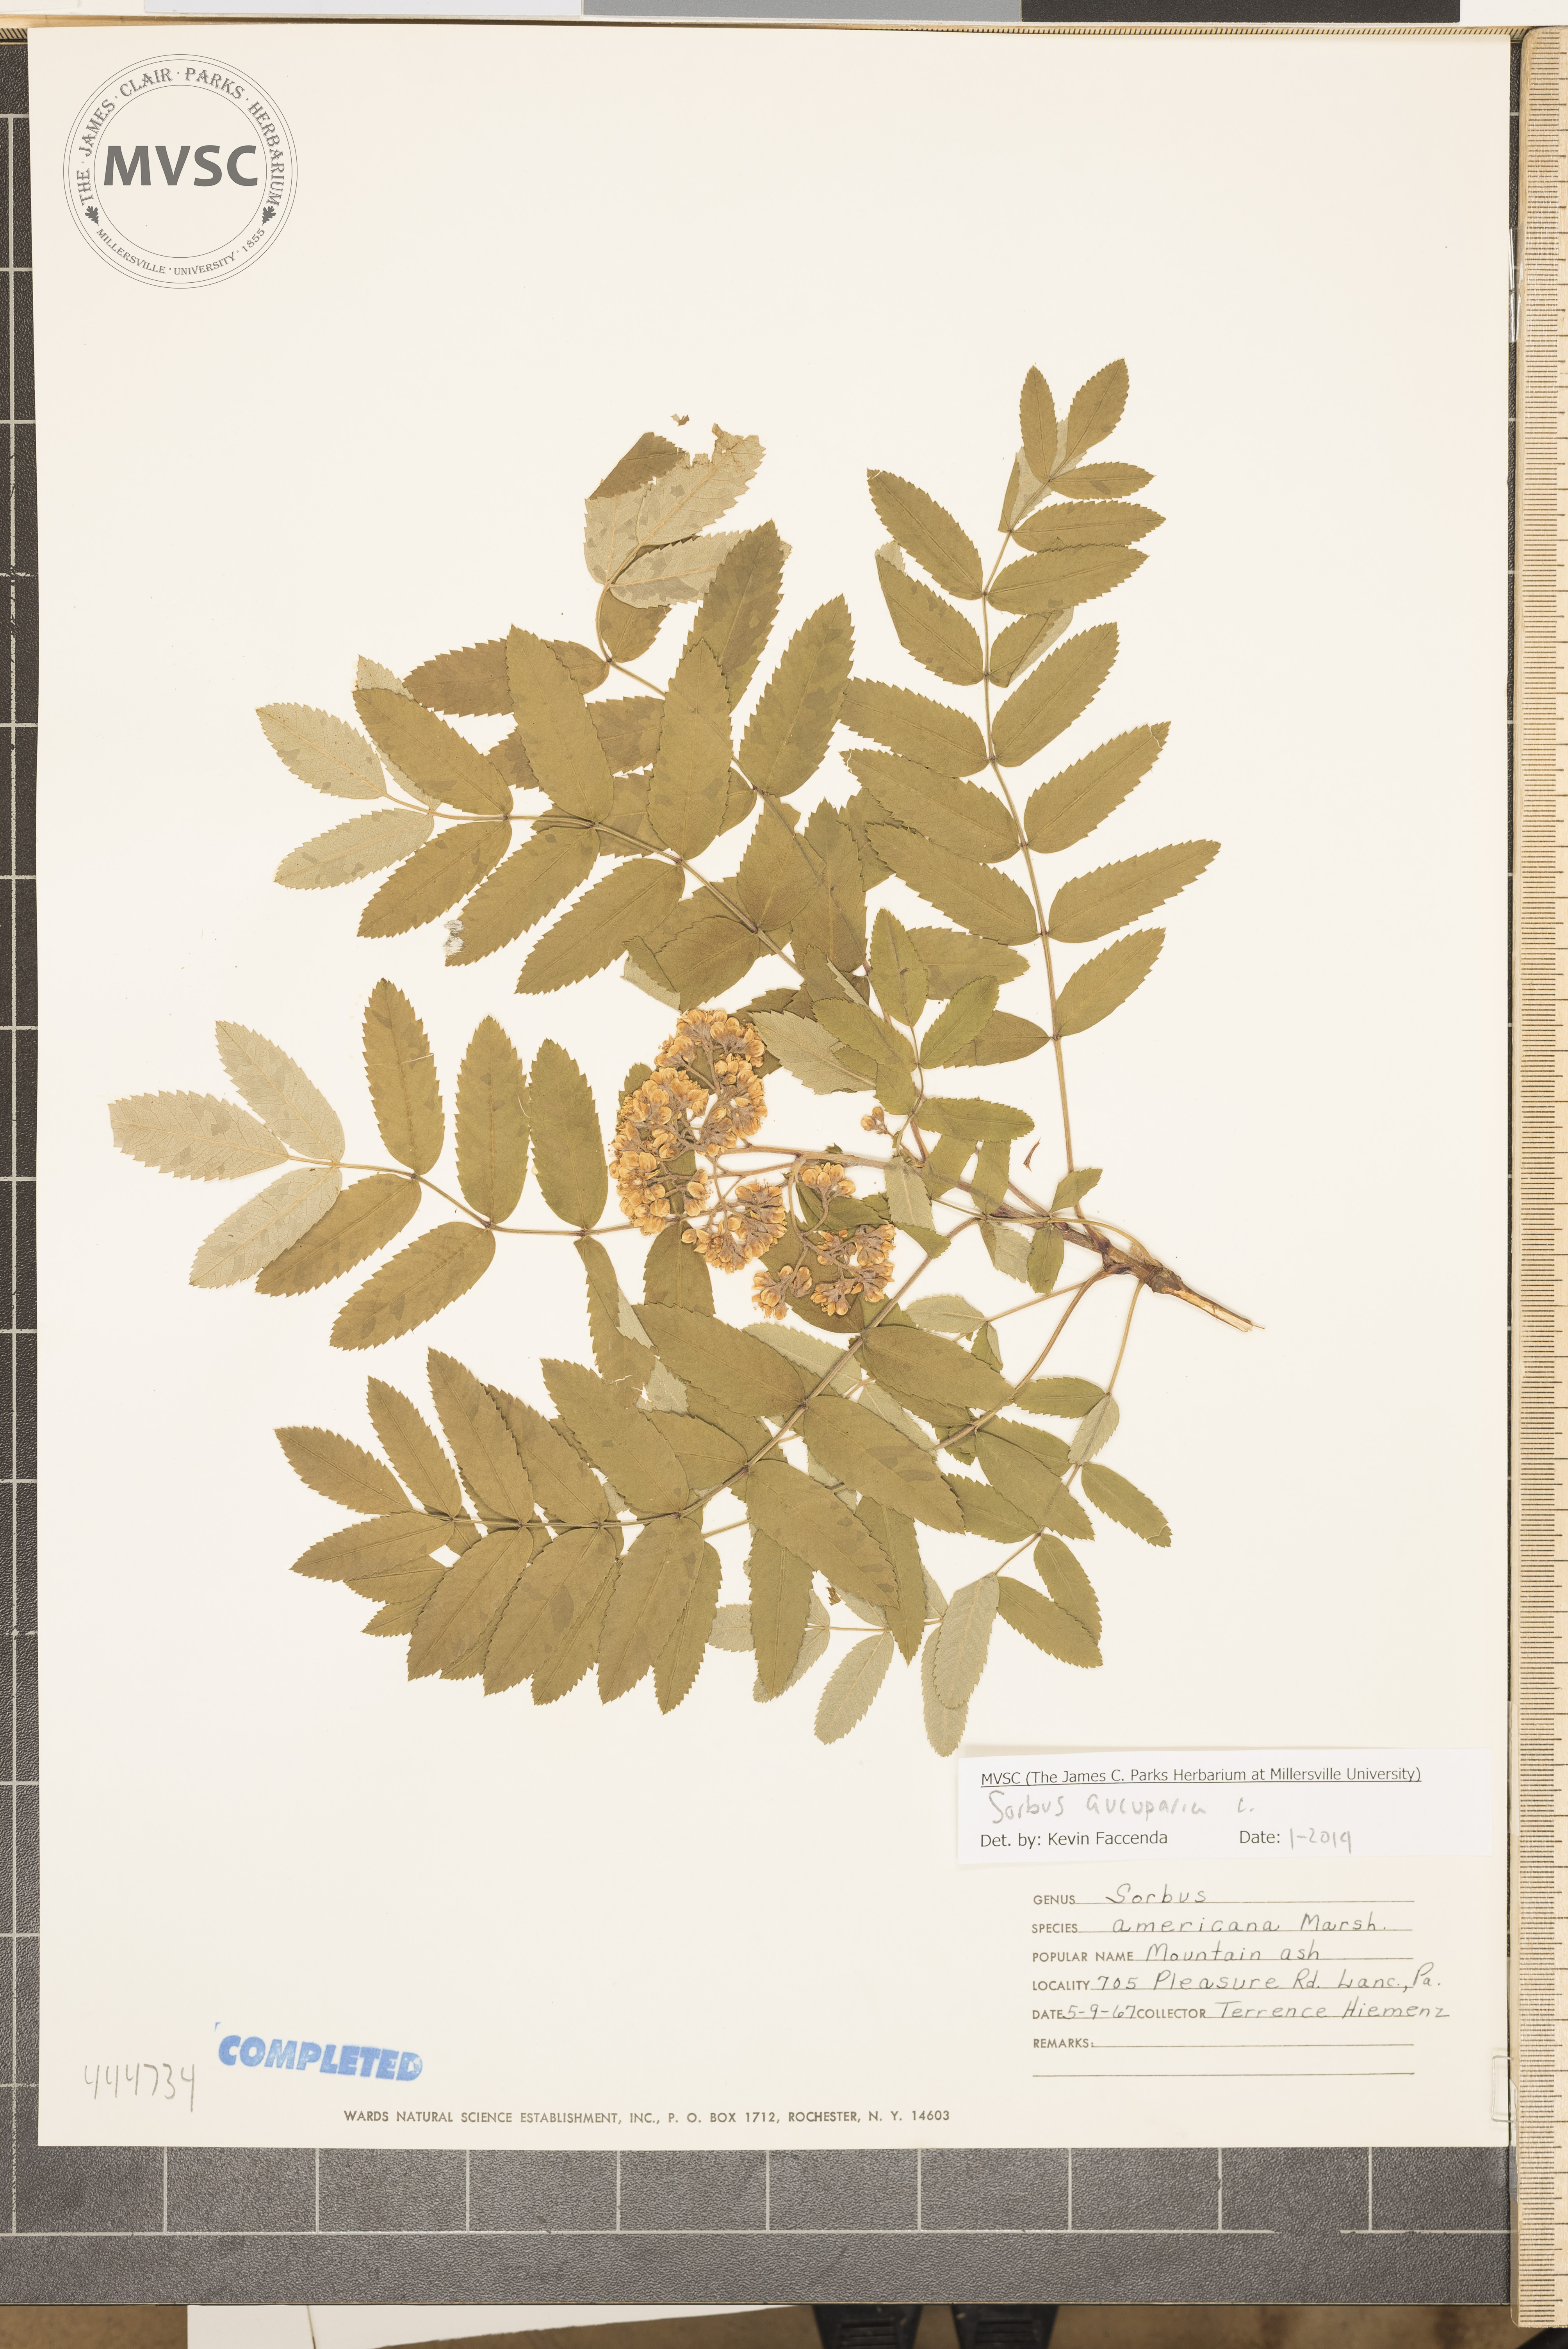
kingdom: Plantae
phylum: Tracheophyta
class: Magnoliopsida
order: Rosales
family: Rosaceae
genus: Sorbus
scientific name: Sorbus aucuparia
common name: Rowan
